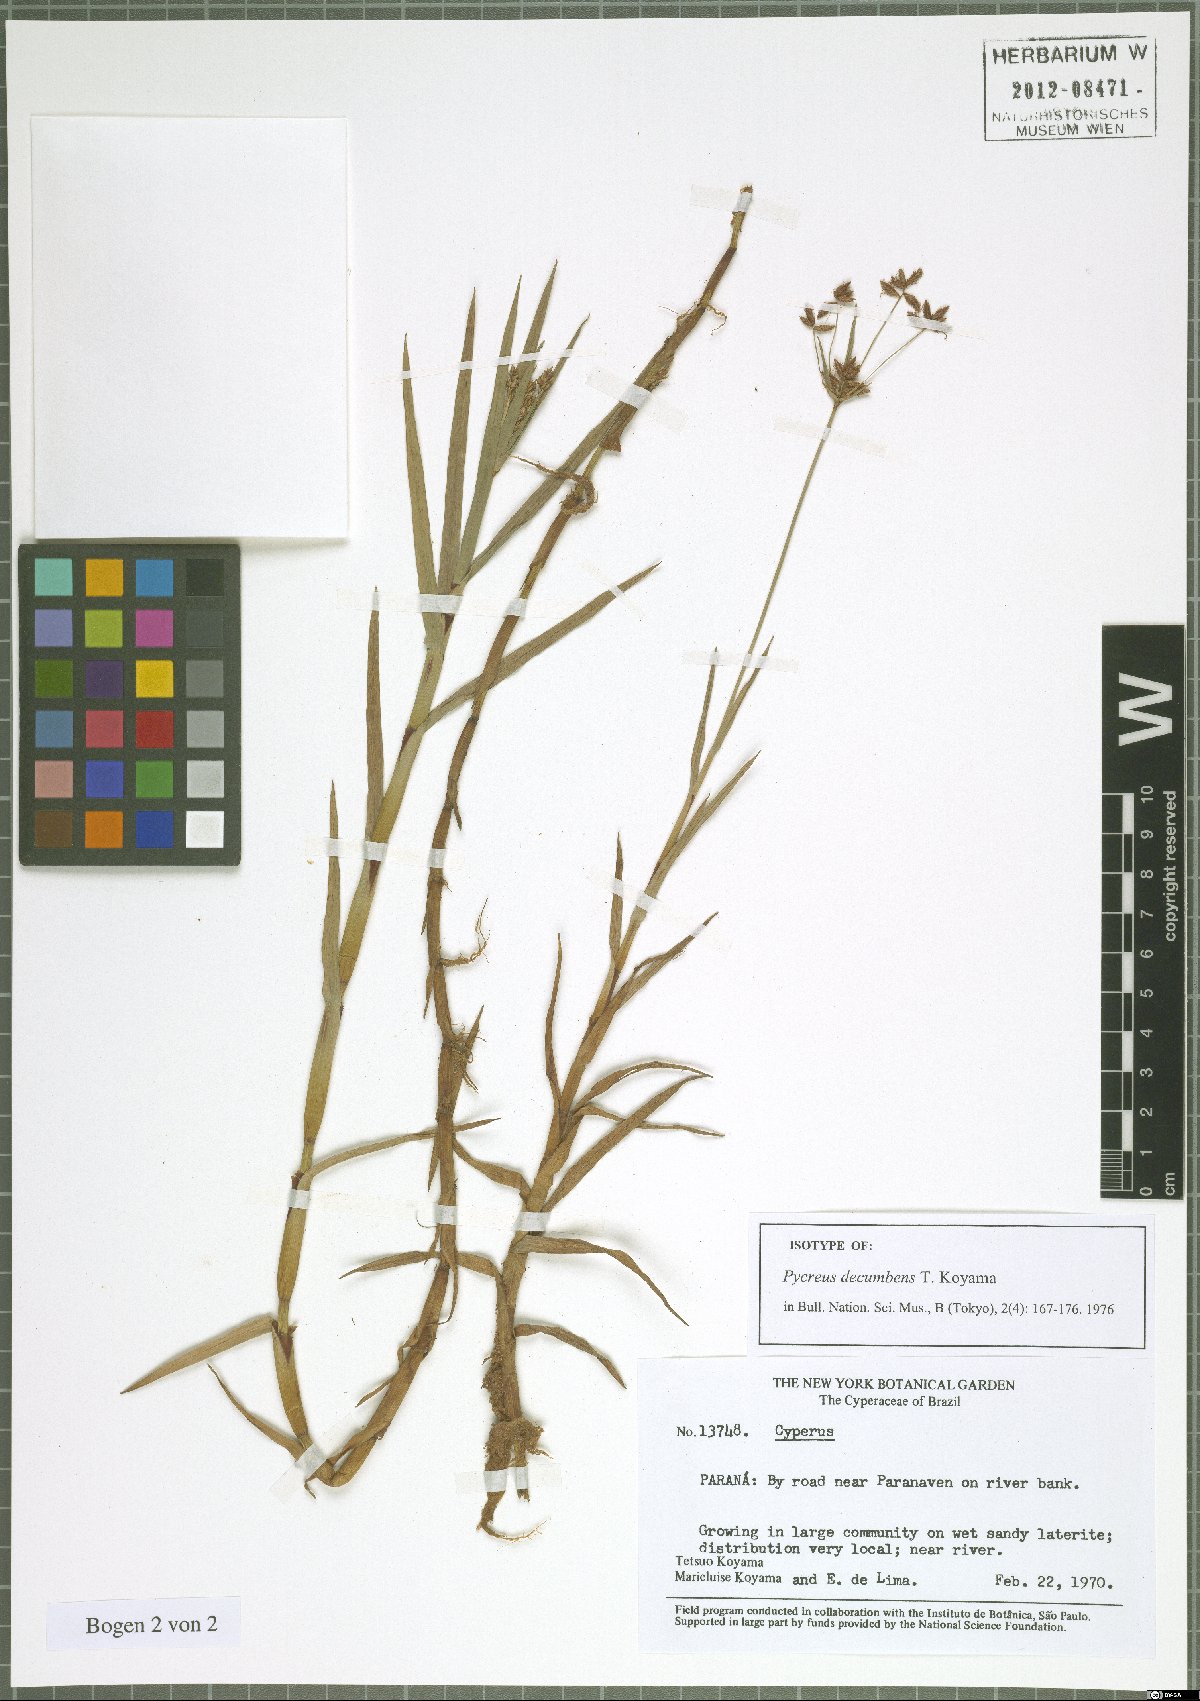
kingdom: Plantae
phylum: Tracheophyta
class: Liliopsida
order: Poales
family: Cyperaceae
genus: Cyperus
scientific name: Cyperus mundii
